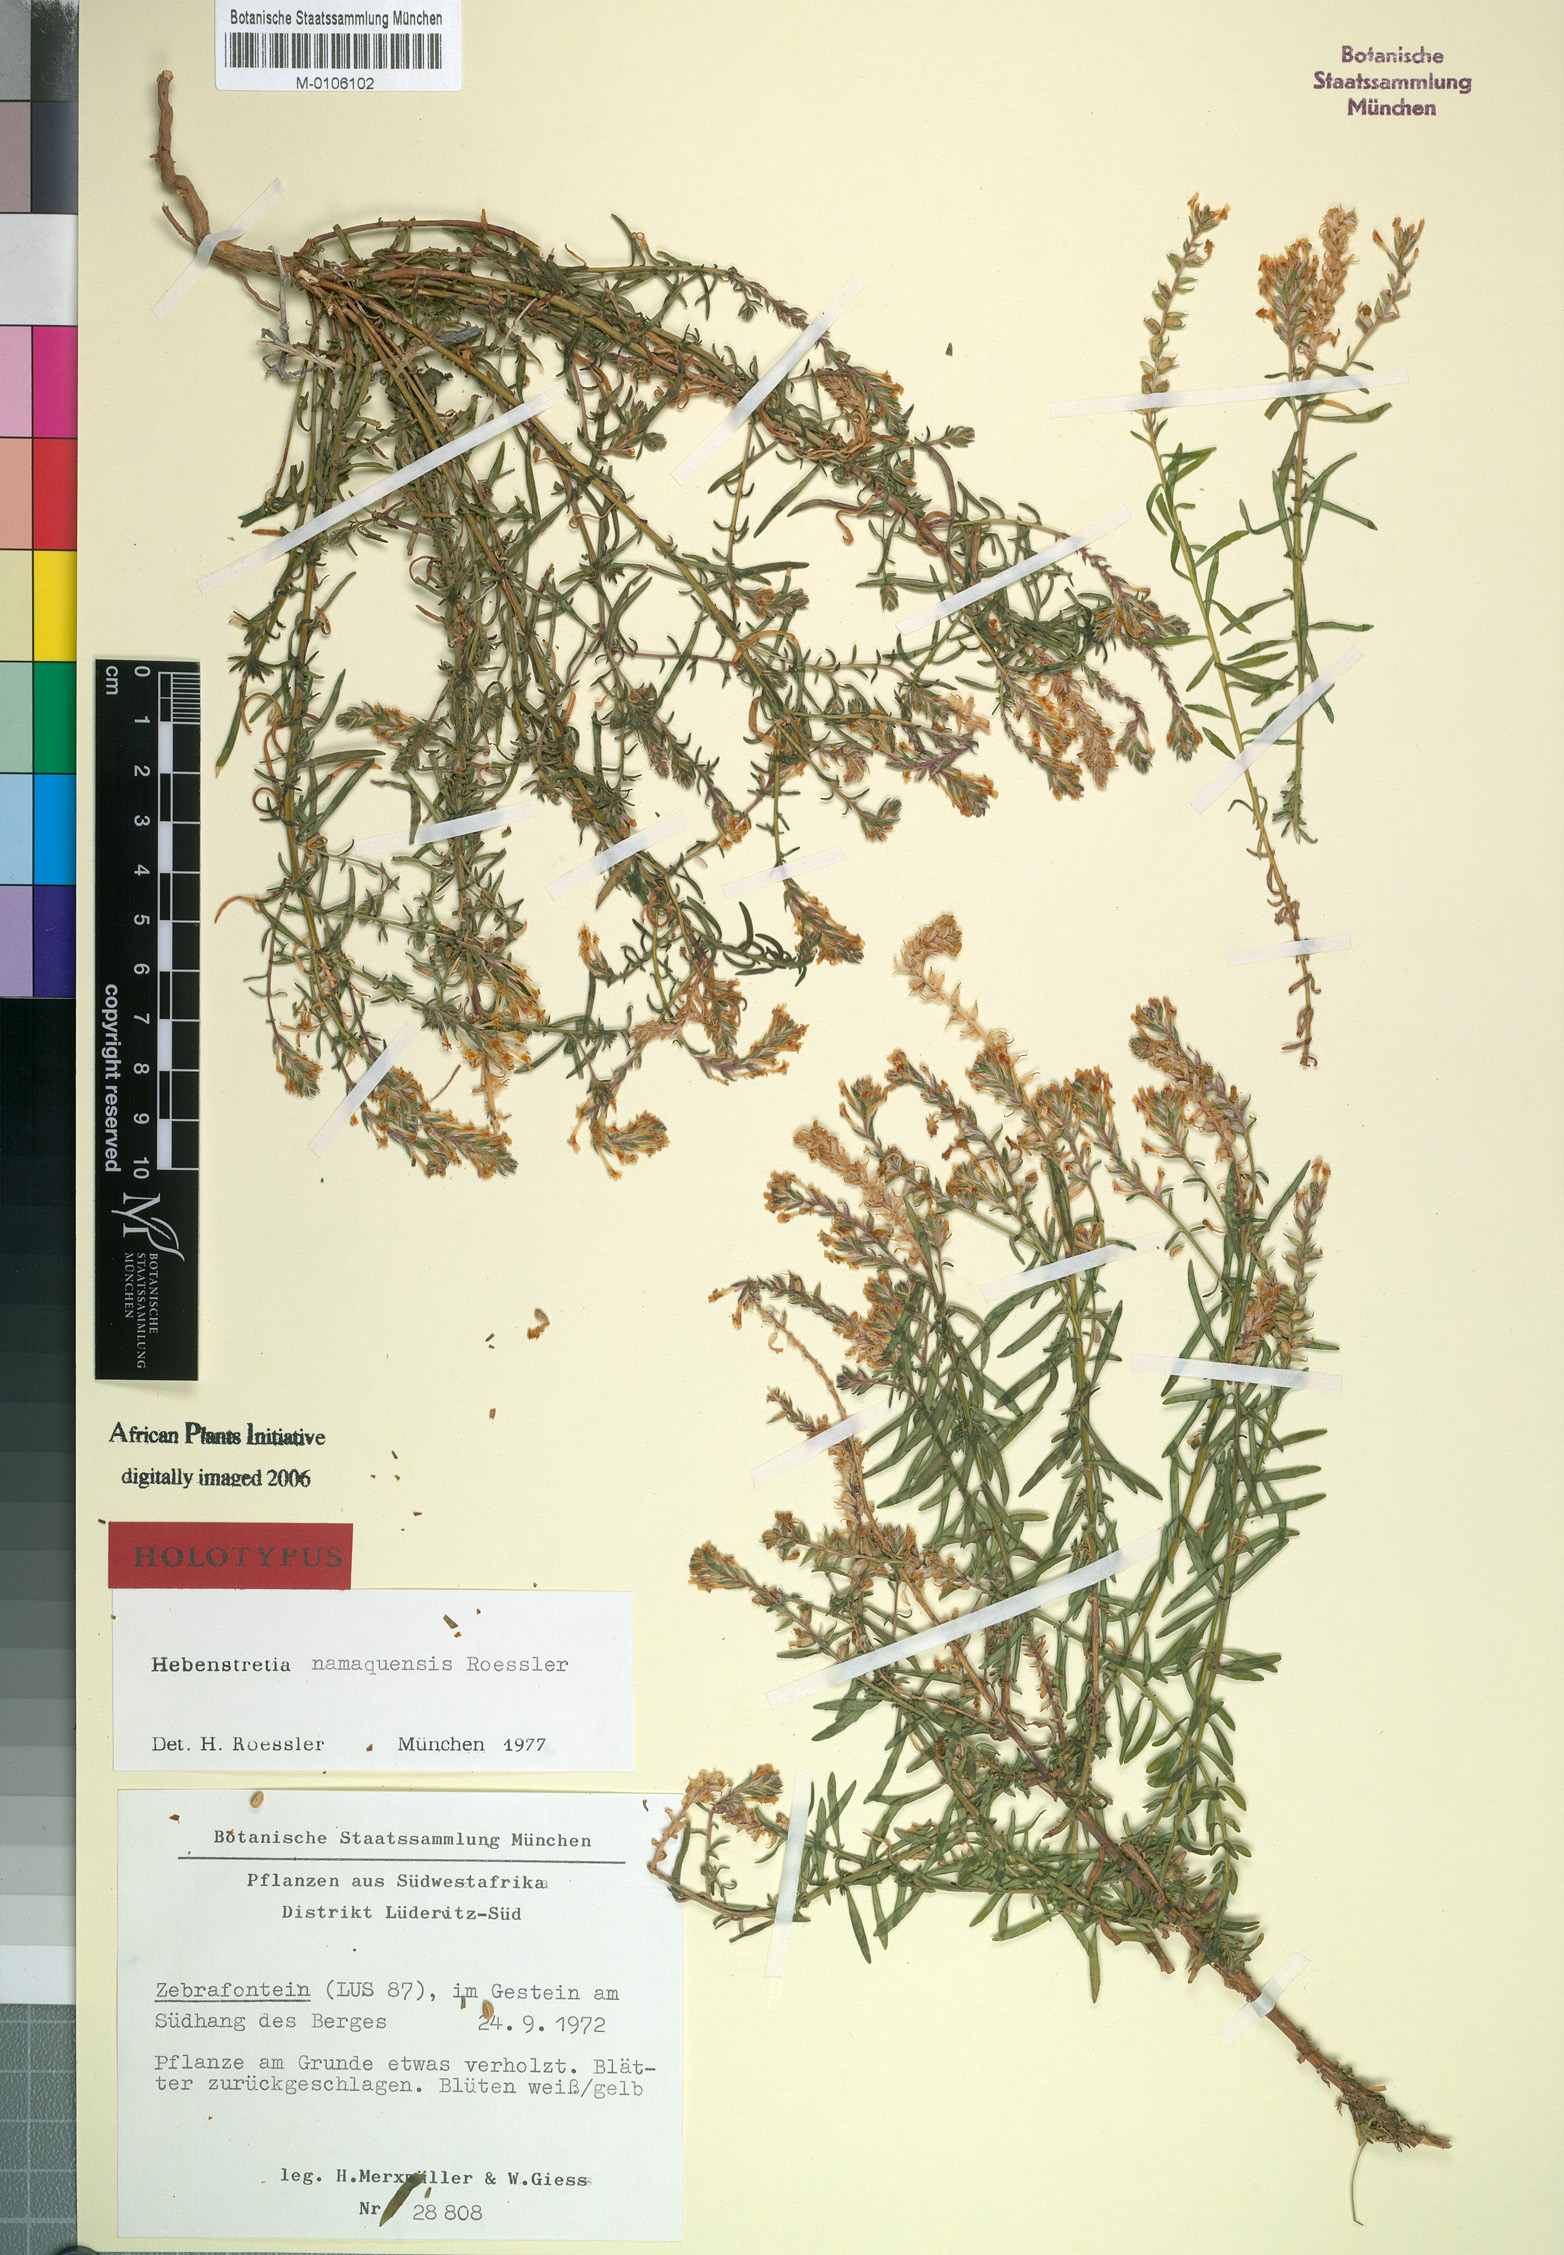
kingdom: Plantae
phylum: Tracheophyta
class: Magnoliopsida
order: Lamiales
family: Scrophulariaceae
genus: Hebenstretia
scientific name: Hebenstretia namaquensis
